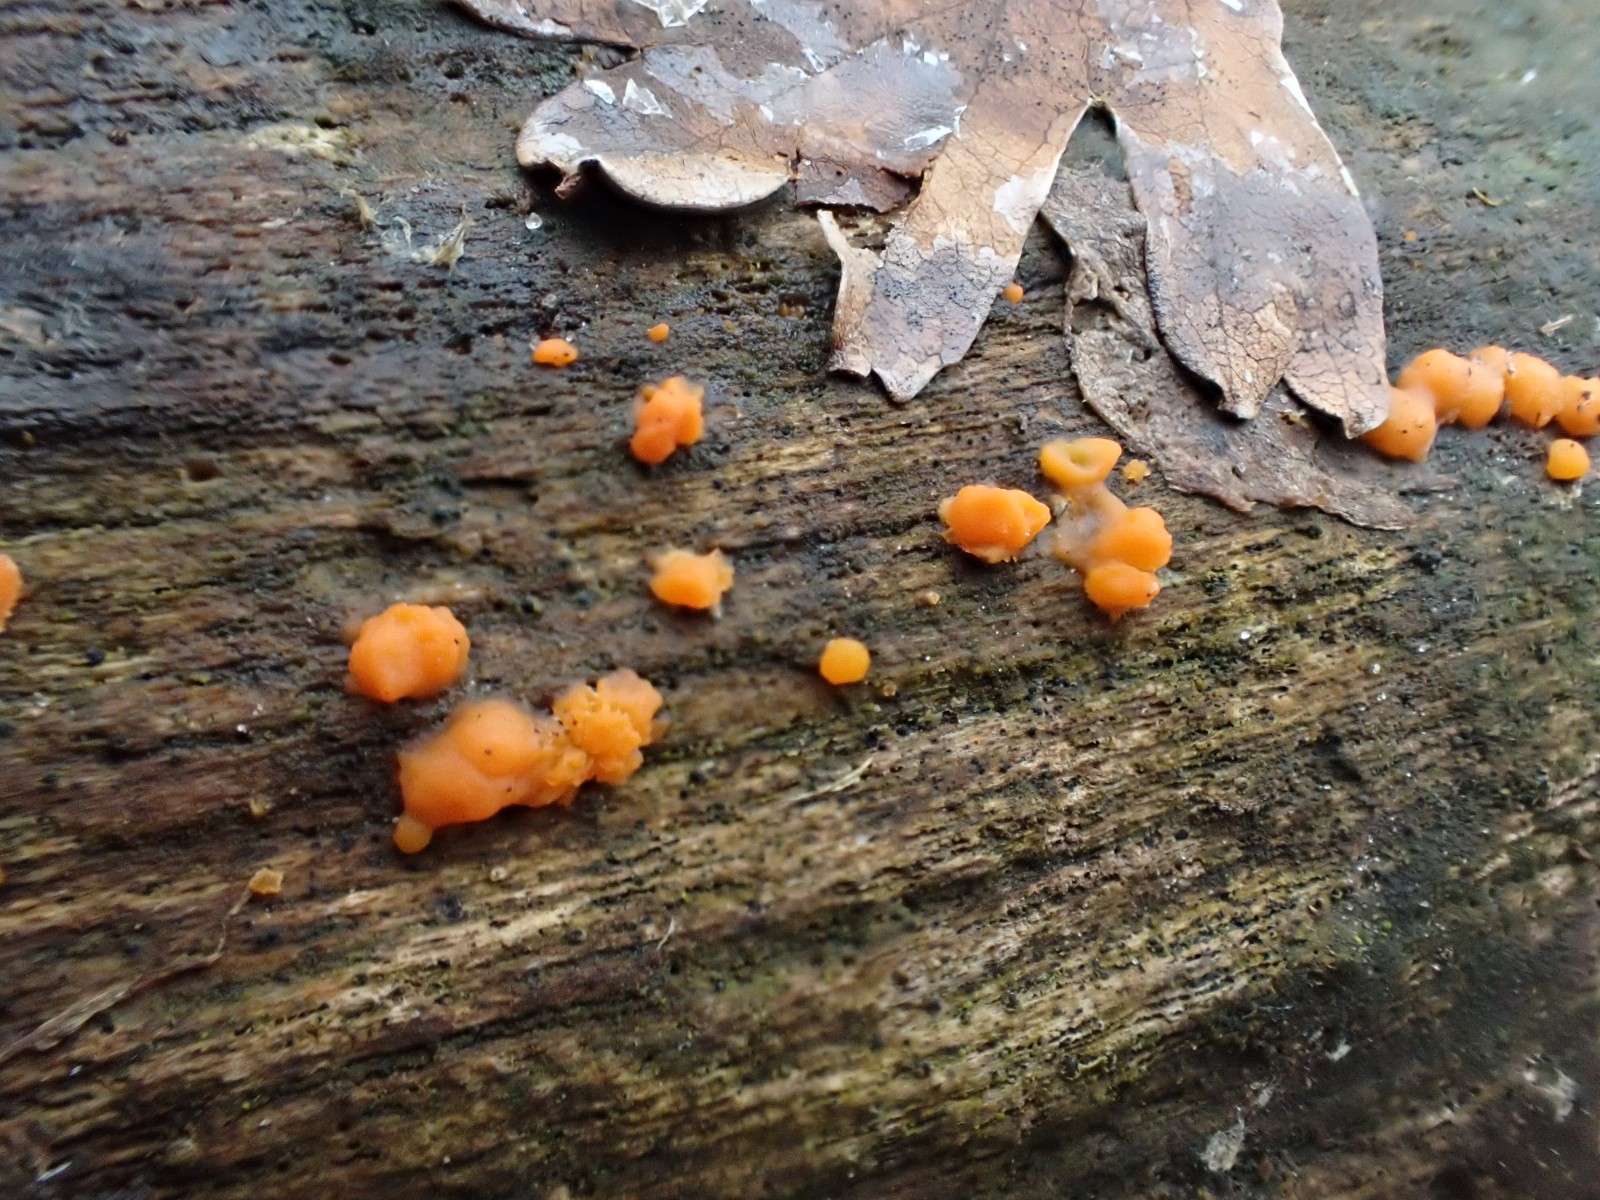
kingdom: Fungi
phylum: Basidiomycota
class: Dacrymycetes
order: Dacrymycetales
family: Dacrymycetaceae
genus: Dacrymyces
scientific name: Dacrymyces stillatus
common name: almindelig tåresvamp
